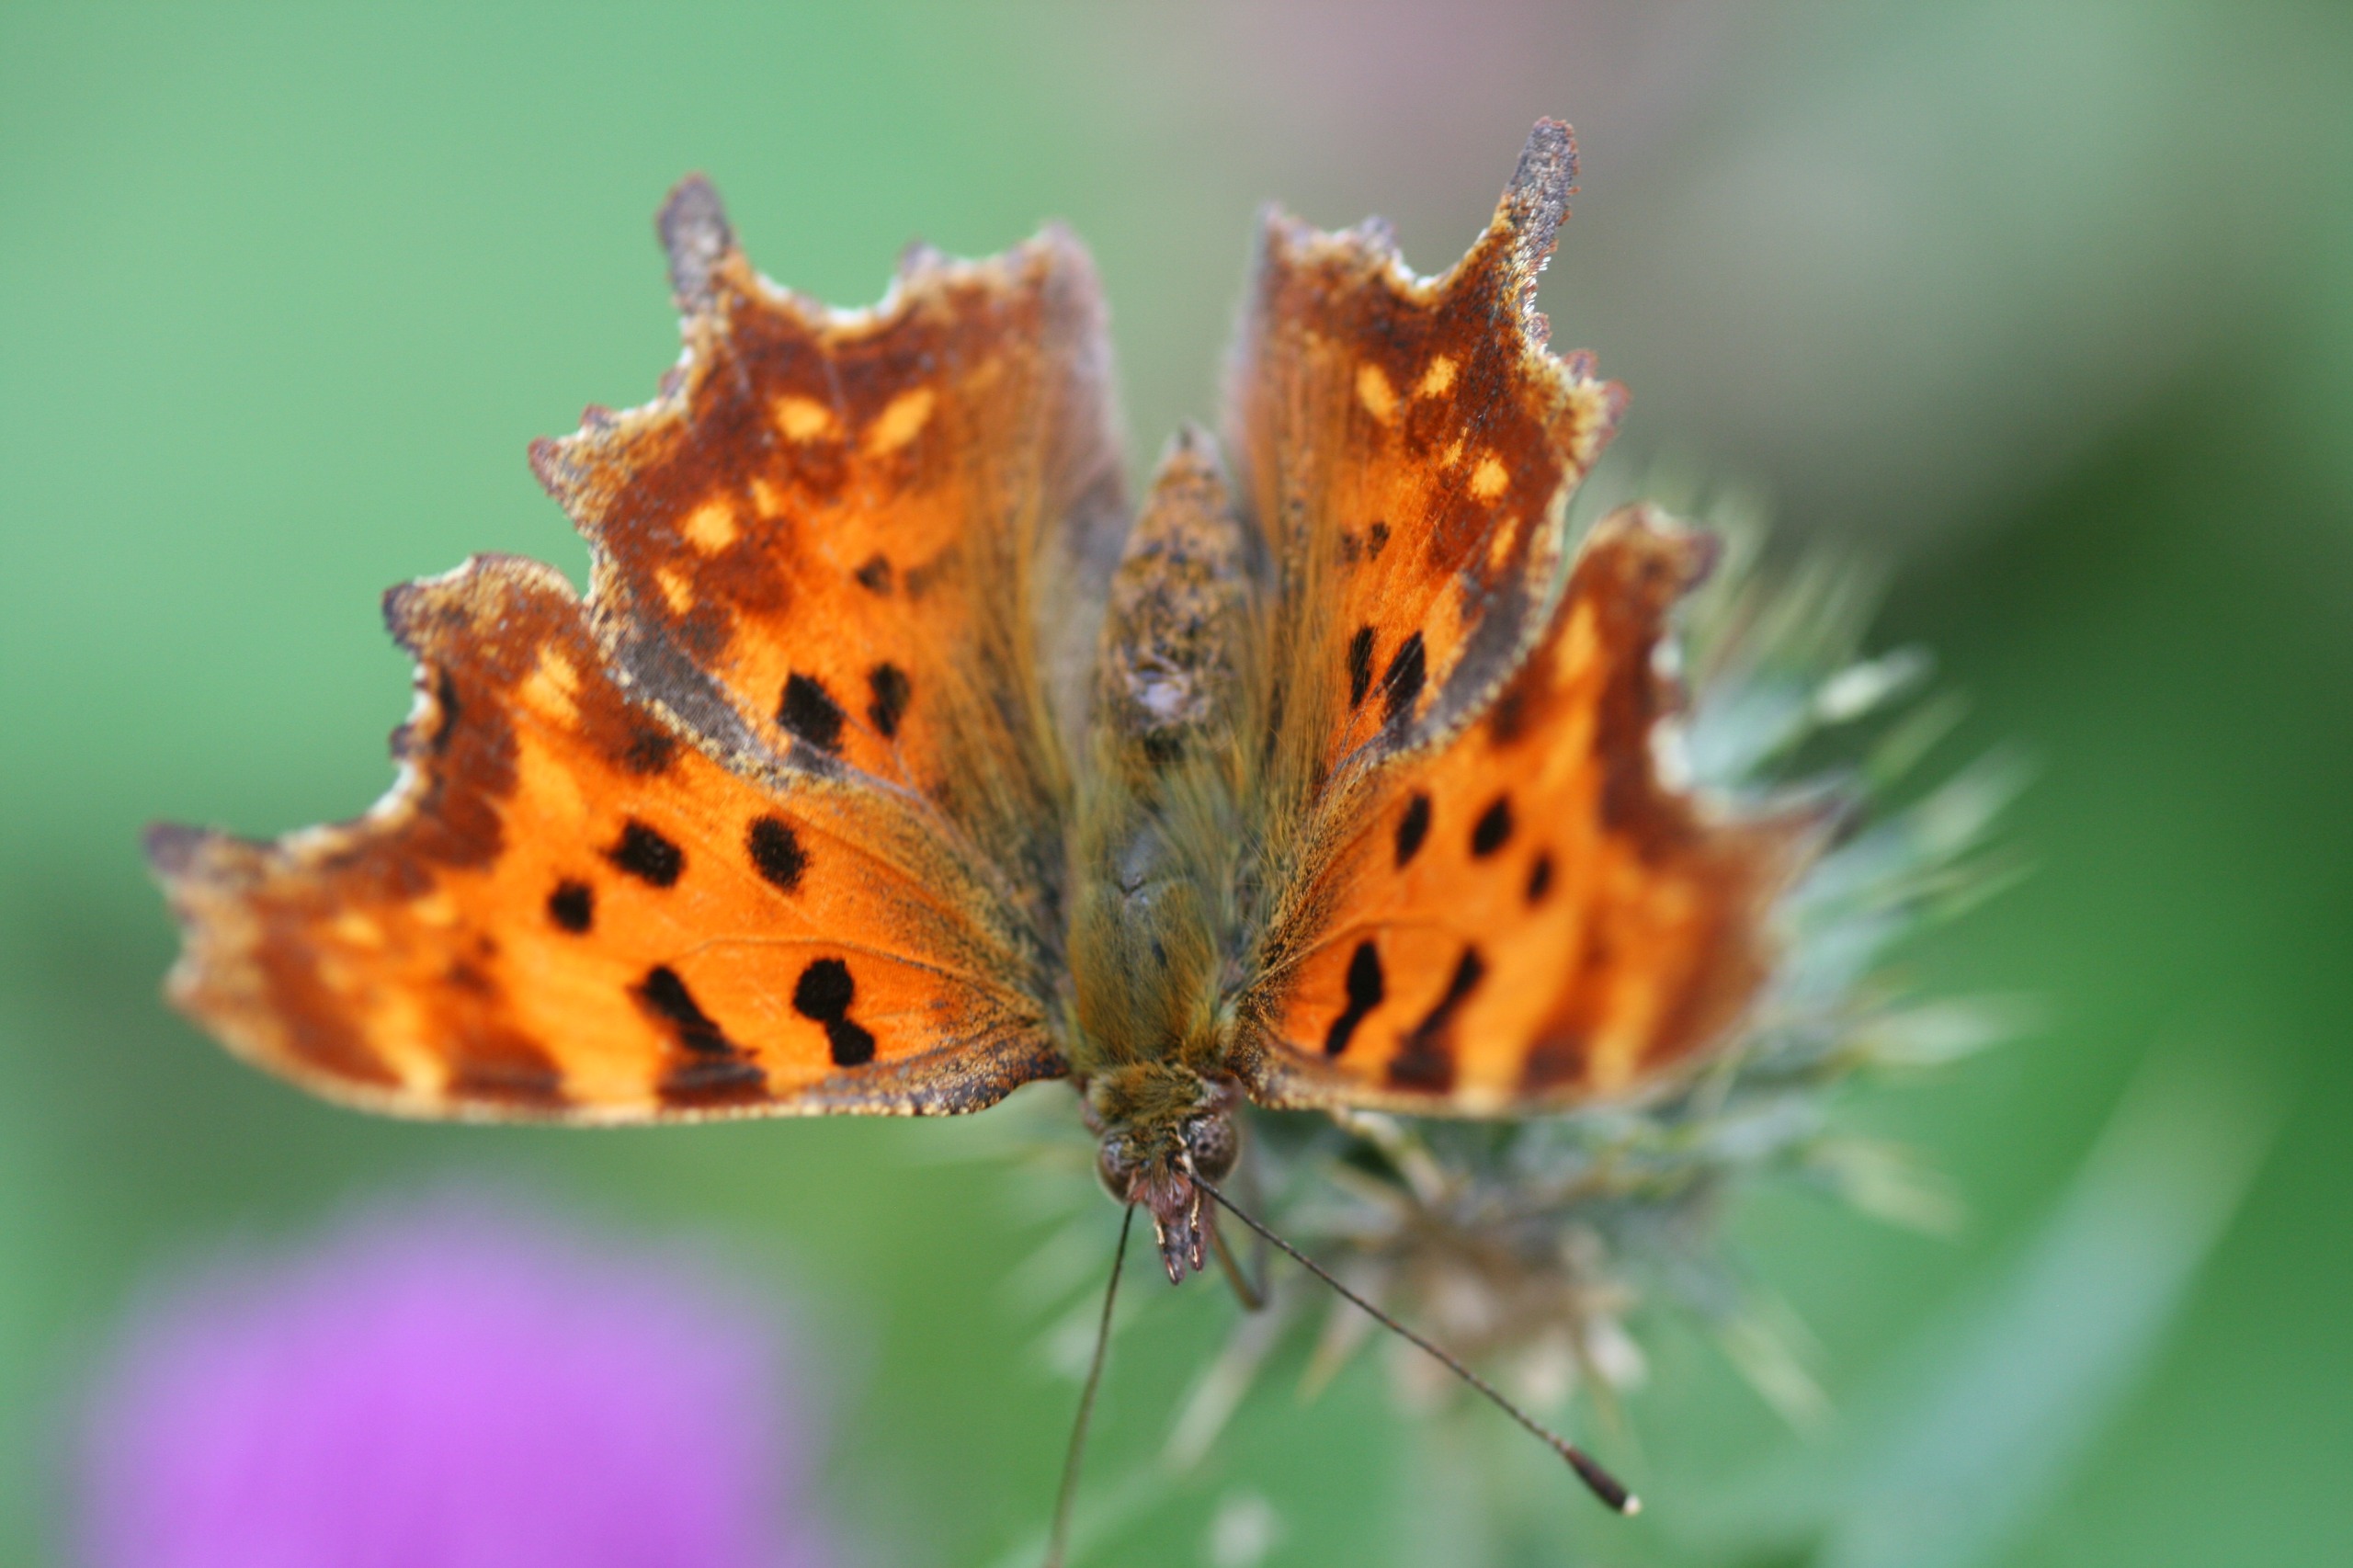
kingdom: Animalia
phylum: Arthropoda
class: Insecta
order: Lepidoptera
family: Nymphalidae
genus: Polygonia
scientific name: Polygonia c-album
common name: Det hvide C
